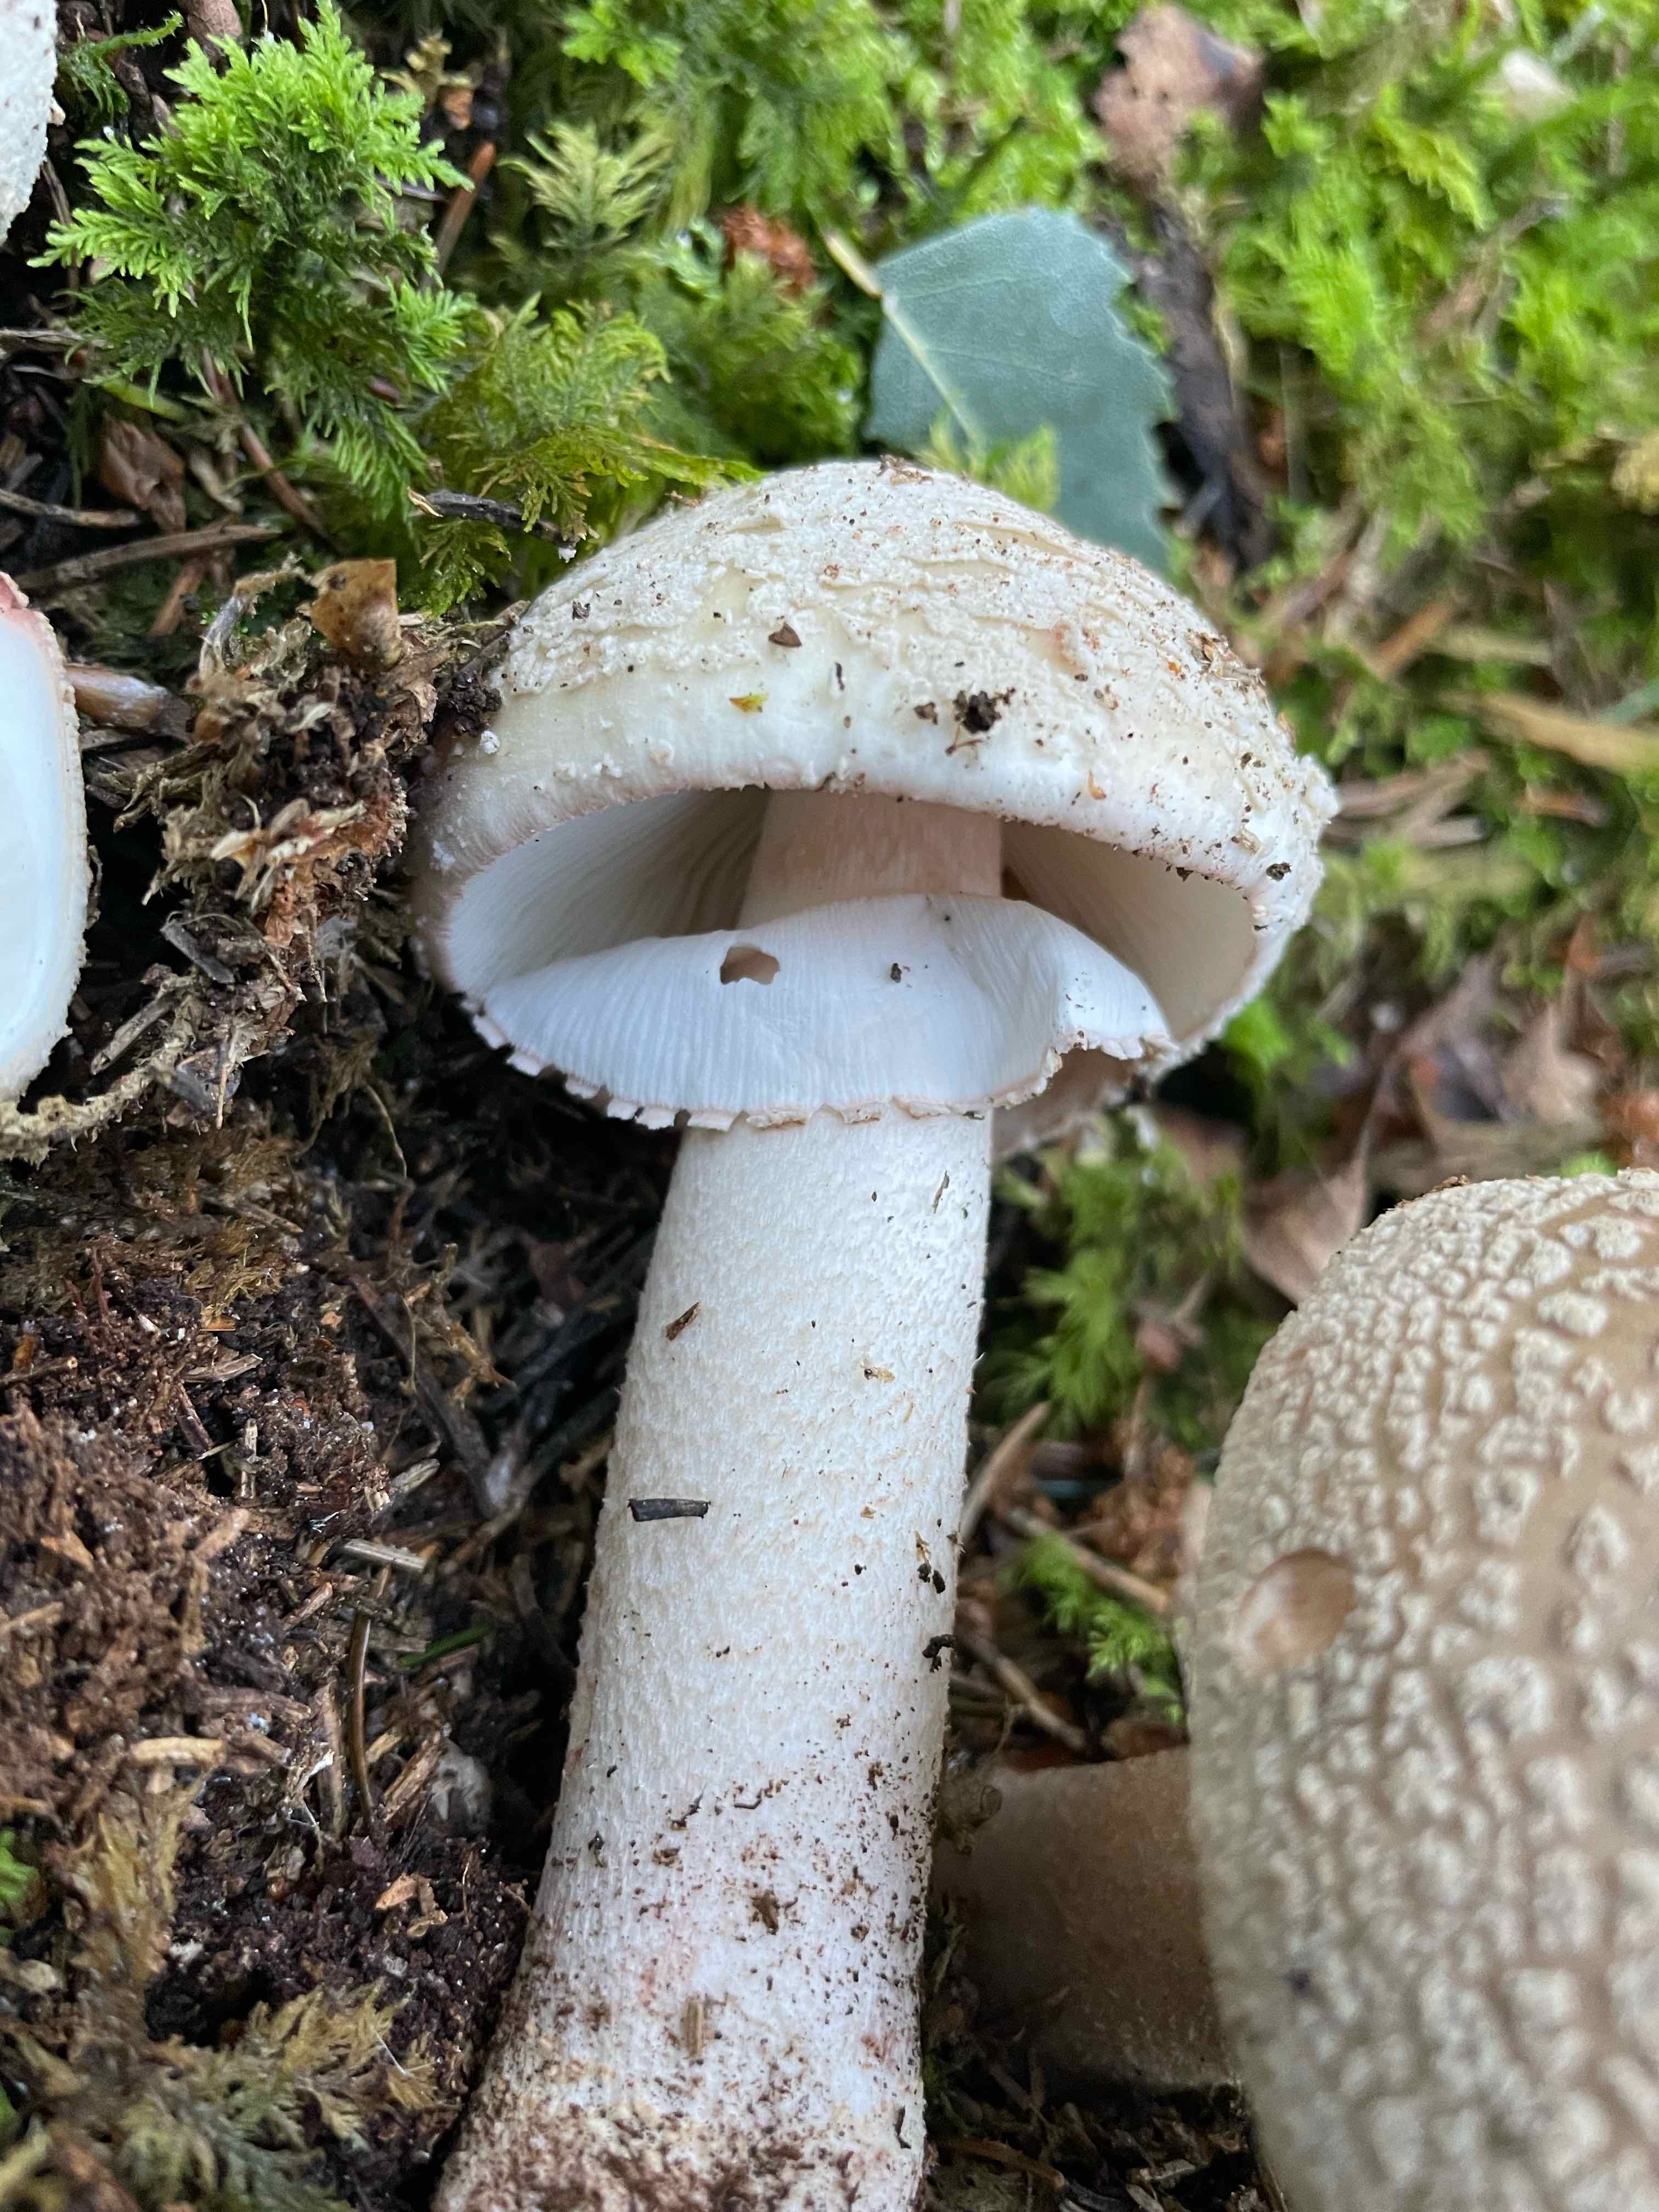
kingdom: Fungi
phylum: Basidiomycota
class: Agaricomycetes
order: Agaricales
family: Amanitaceae
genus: Amanita
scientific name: Amanita rubescens
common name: rødmende fluesvamp
